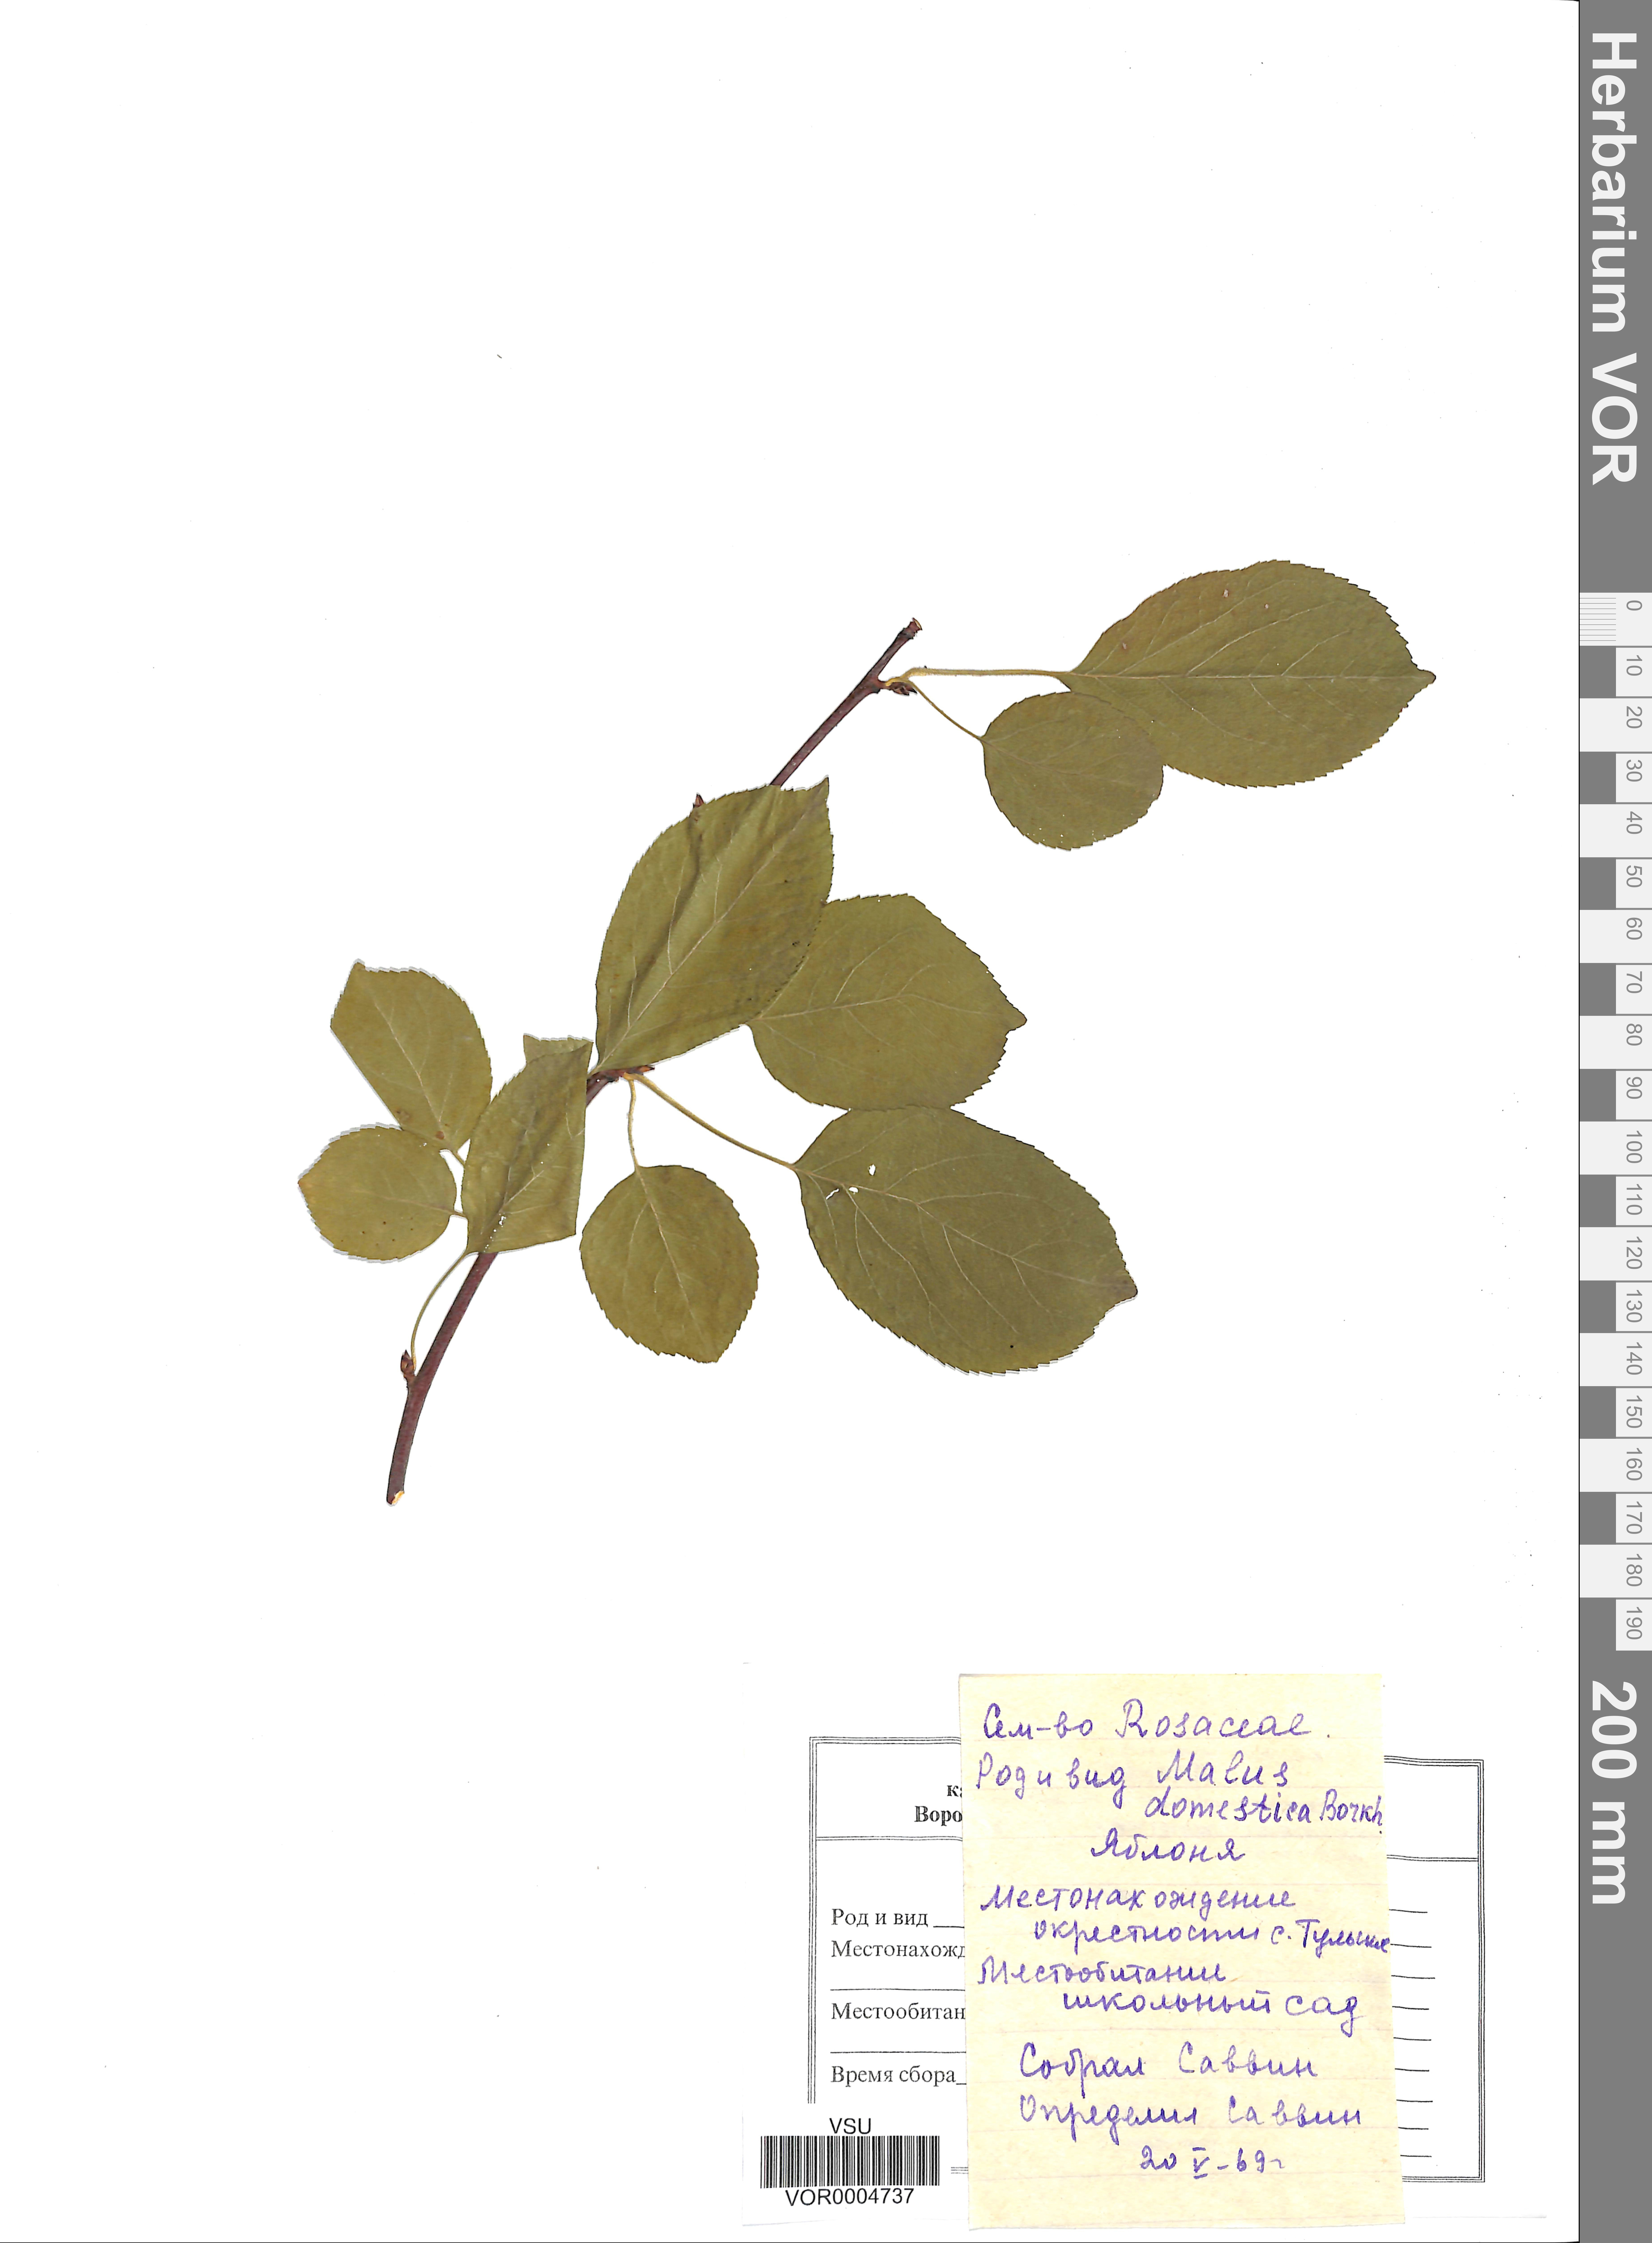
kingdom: Plantae
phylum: Tracheophyta
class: Magnoliopsida
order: Rosales
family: Rosaceae
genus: Malus
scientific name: Malus domestica
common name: Apple
